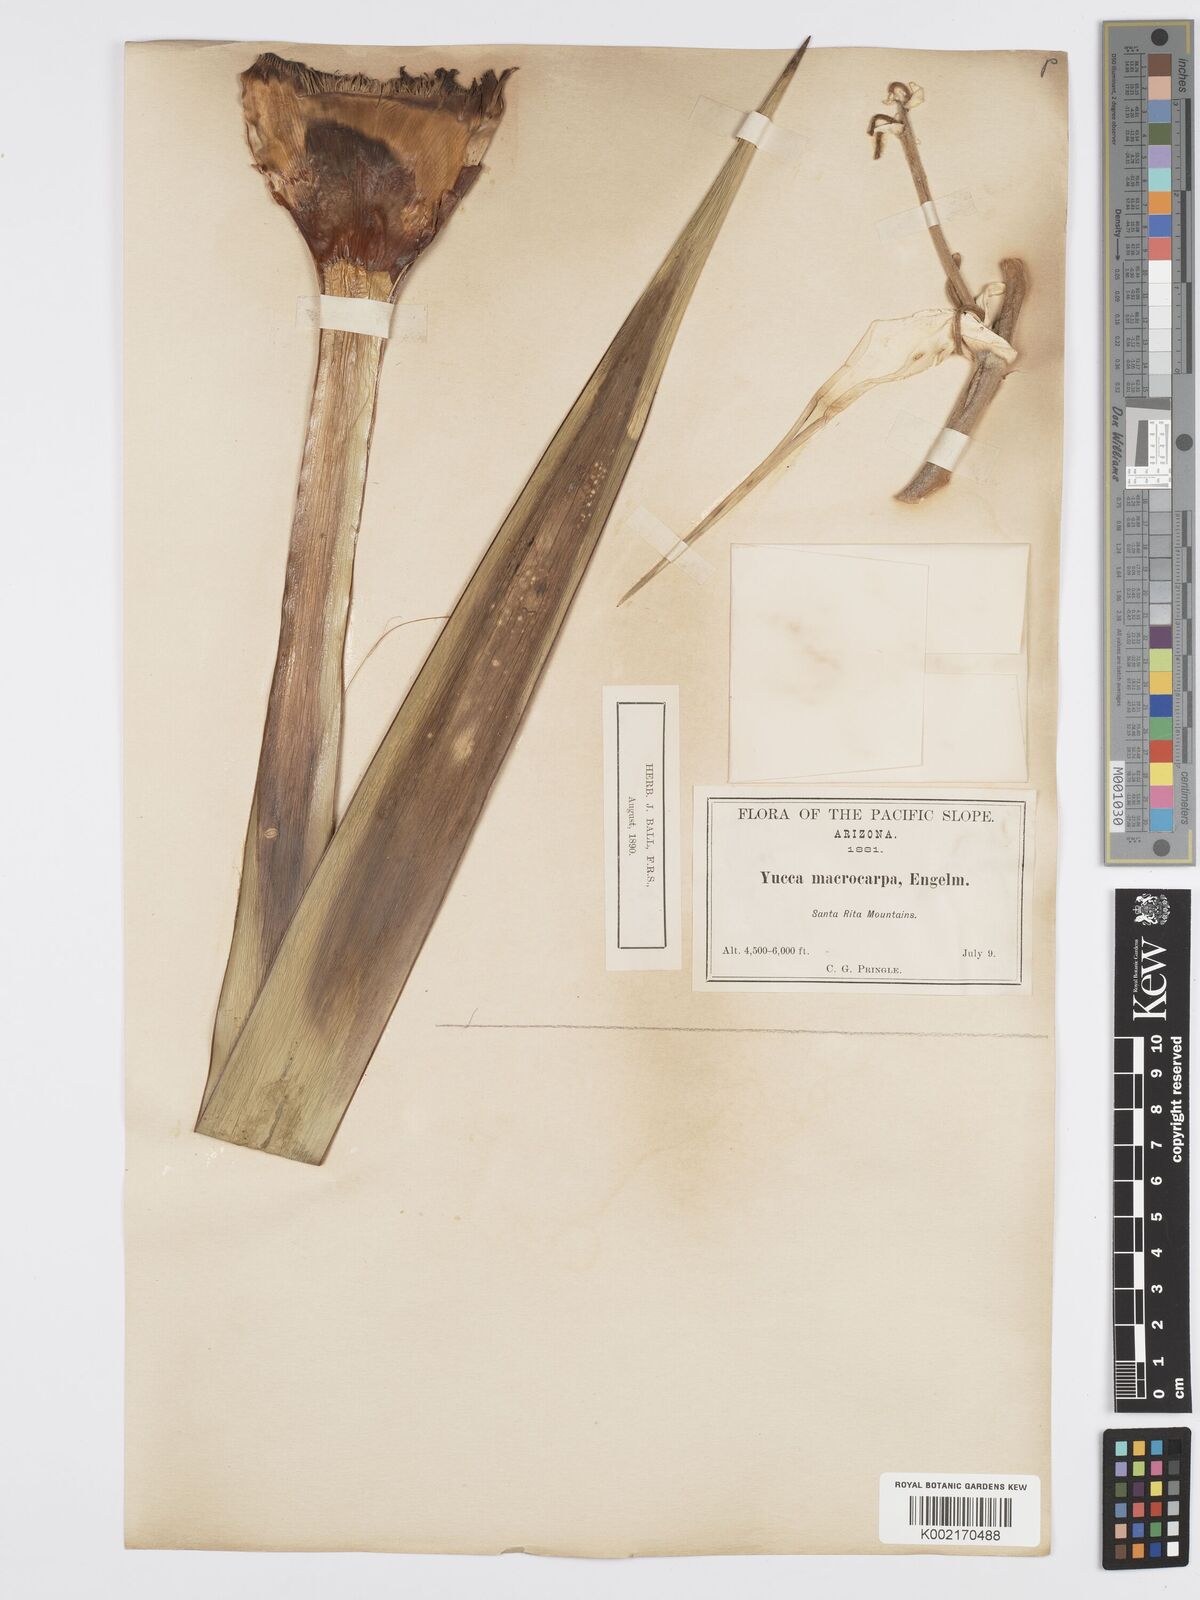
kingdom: Plantae
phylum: Tracheophyta
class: Liliopsida
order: Asparagales
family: Asparagaceae
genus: Yucca
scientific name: Yucca schottii
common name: Hoary yucca
